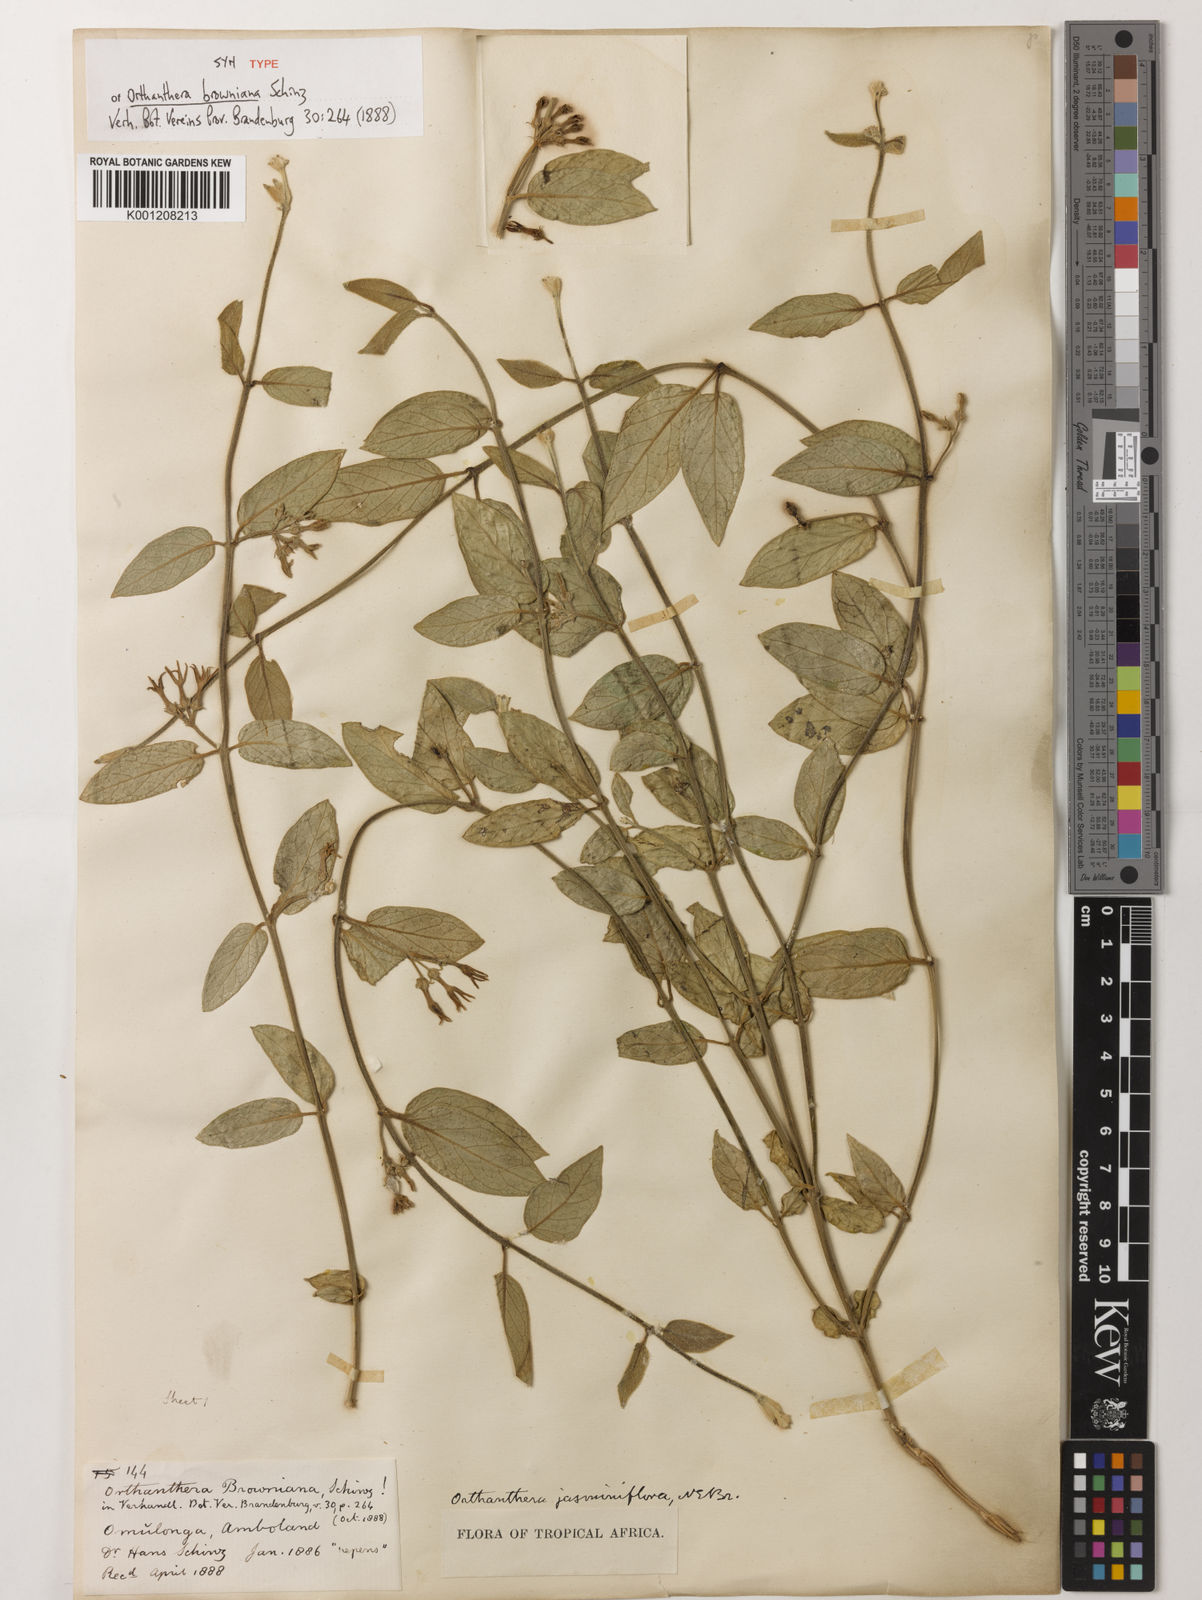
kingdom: Plantae
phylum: Tracheophyta
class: Magnoliopsida
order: Gentianales
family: Apocynaceae
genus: Orthanthera
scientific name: Orthanthera jasminiflora
